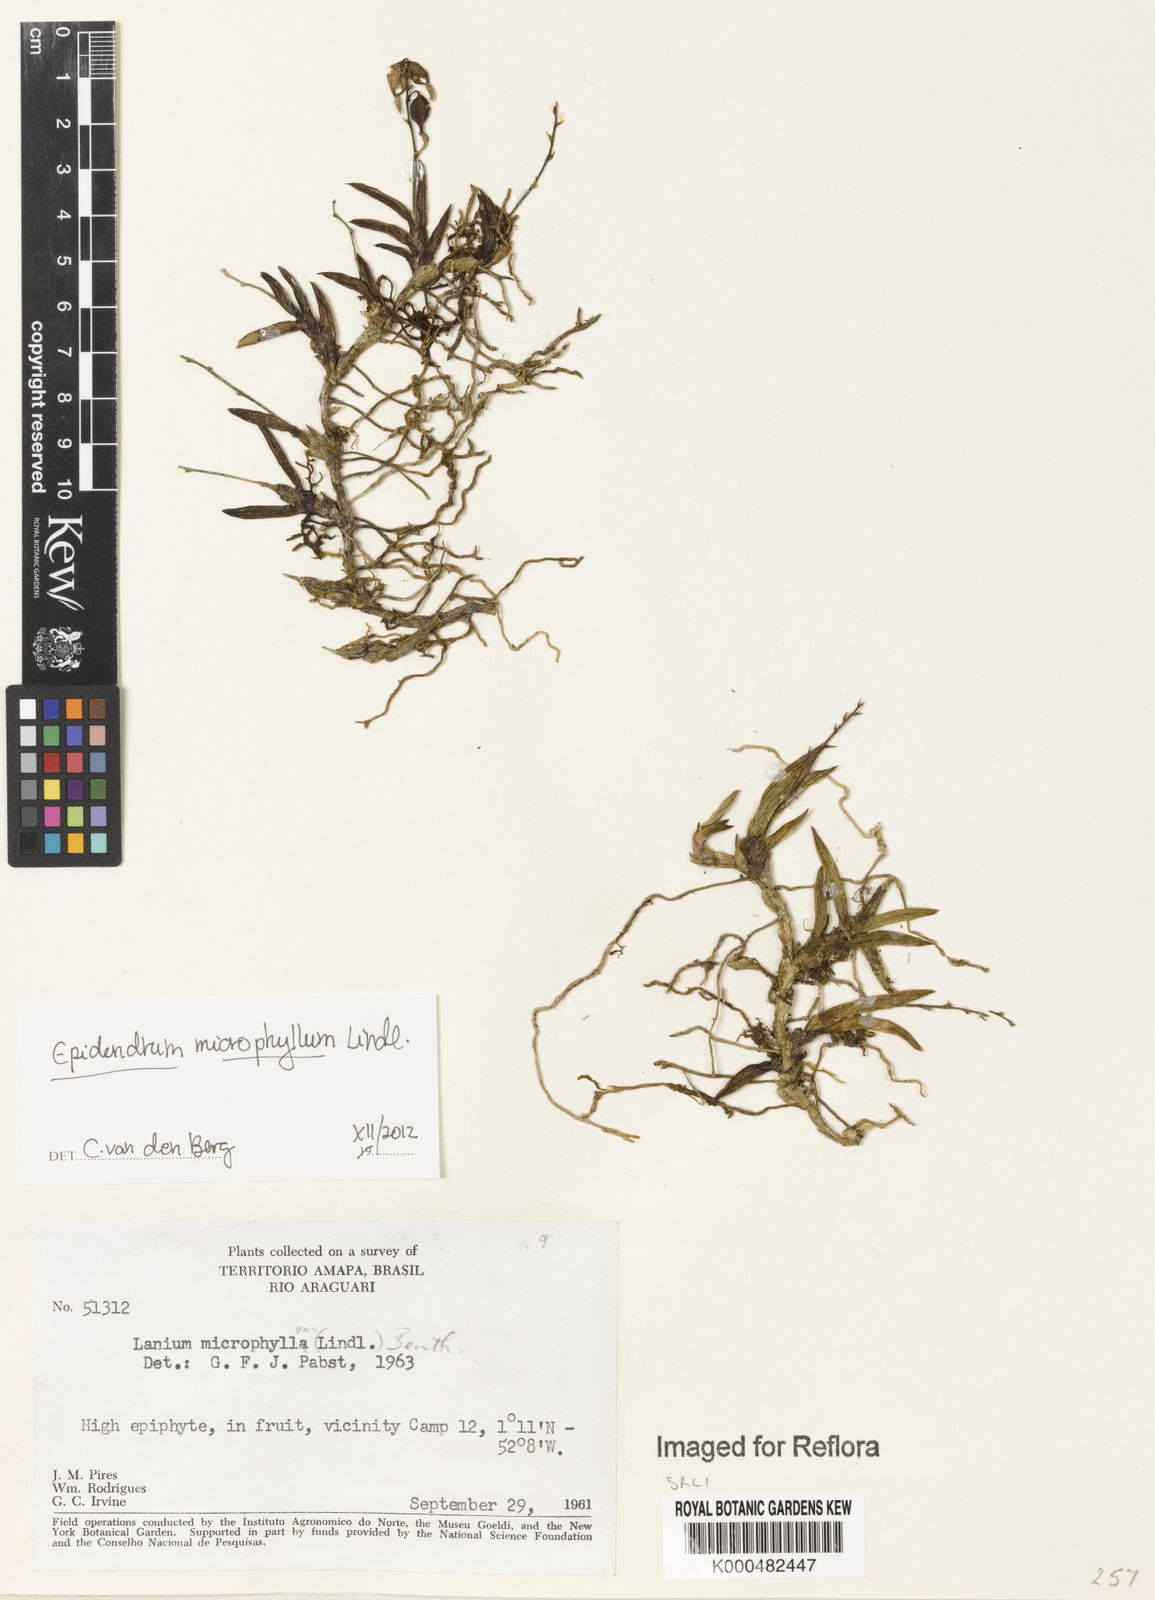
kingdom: Plantae
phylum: Tracheophyta
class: Liliopsida
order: Asparagales
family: Orchidaceae
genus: Epidendrum
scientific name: Epidendrum microphyllum
